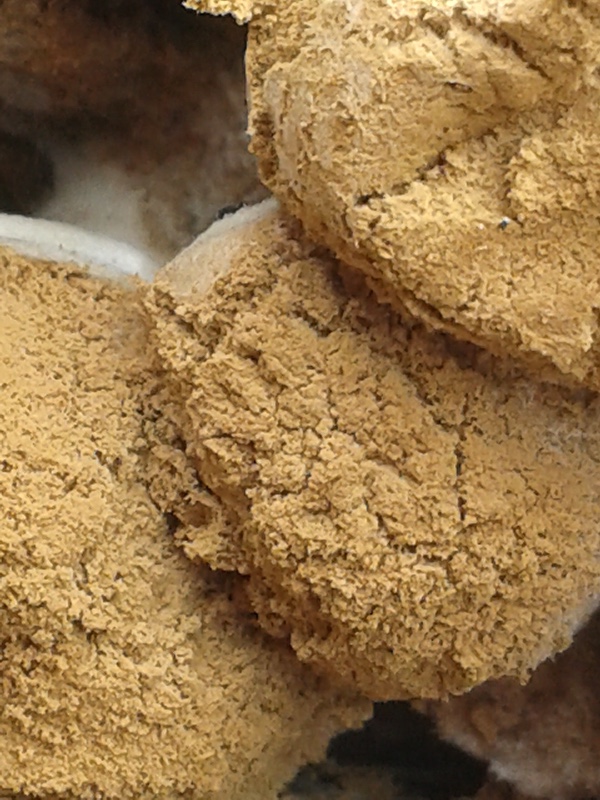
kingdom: Fungi
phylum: Basidiomycota
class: Agaricomycetes
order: Agaricales
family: Lyophyllaceae
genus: Asterophora
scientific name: Asterophora lycoperdoides
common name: brunpudret snyltehat
